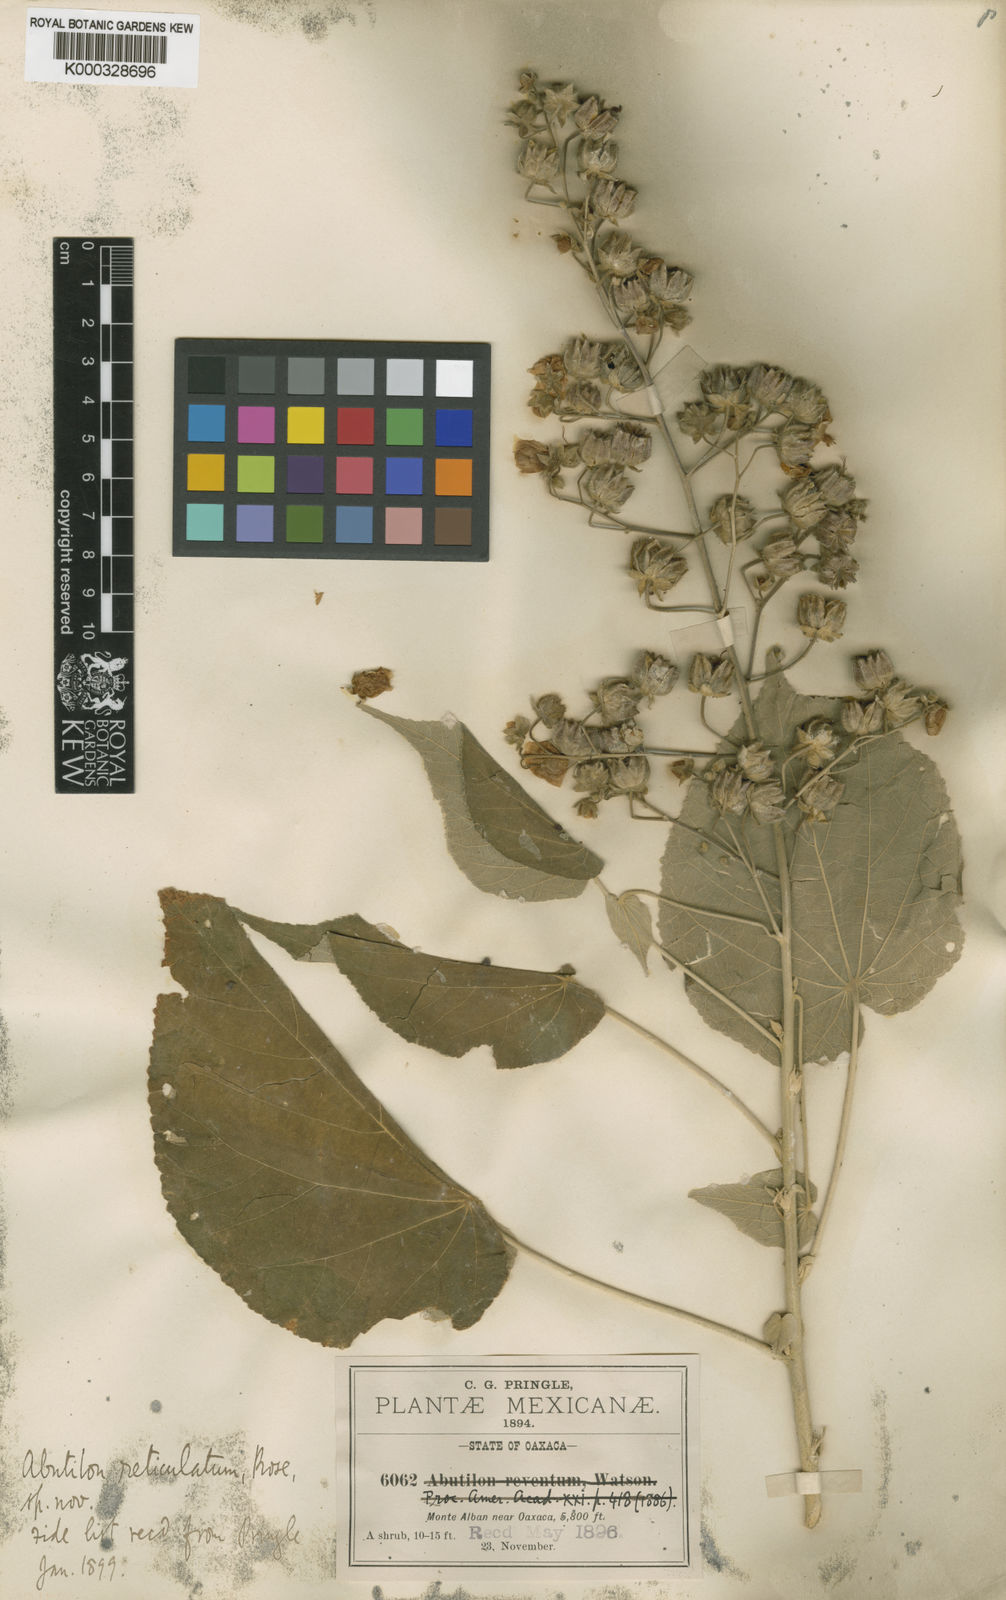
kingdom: Plantae
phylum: Tracheophyta
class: Magnoliopsida
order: Malvales
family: Malvaceae
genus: Abutilon
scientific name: Abutilon andrieuxii
